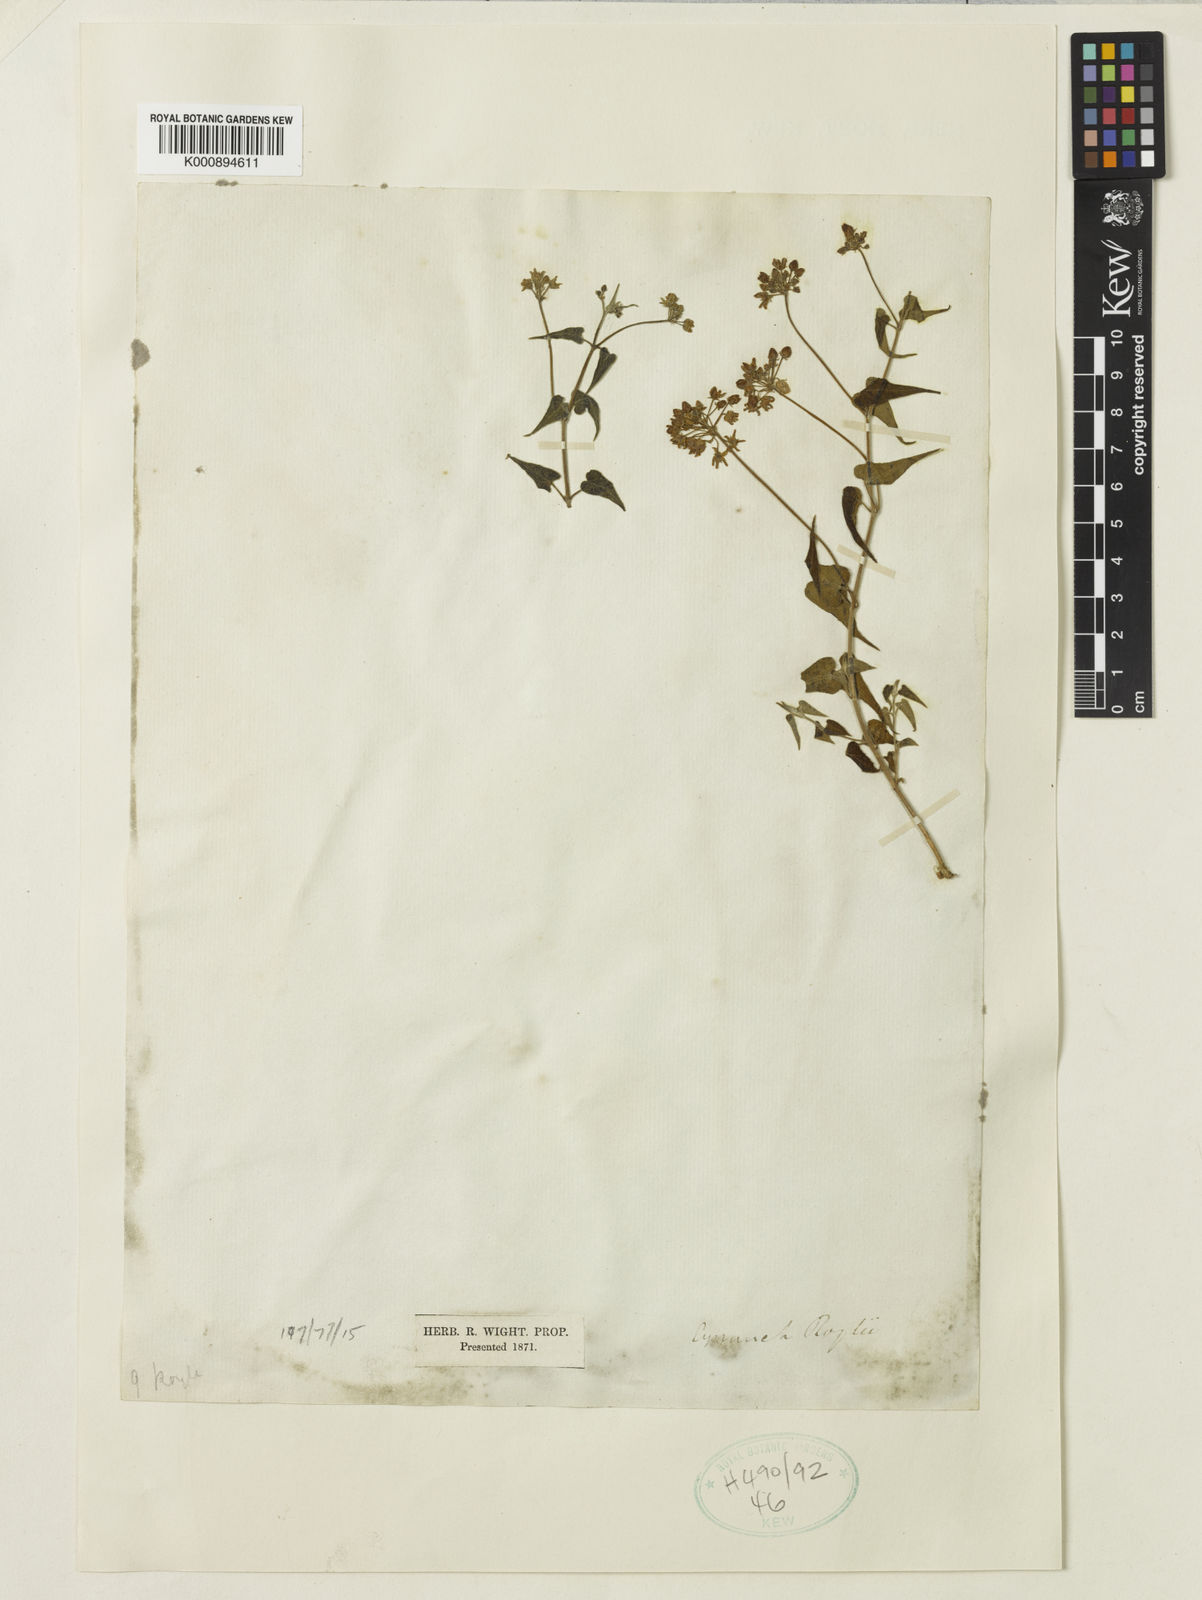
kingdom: Plantae
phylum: Tracheophyta
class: Magnoliopsida
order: Gentianales
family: Apocynaceae
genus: Cynanchum
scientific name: Cynanchum roylei
